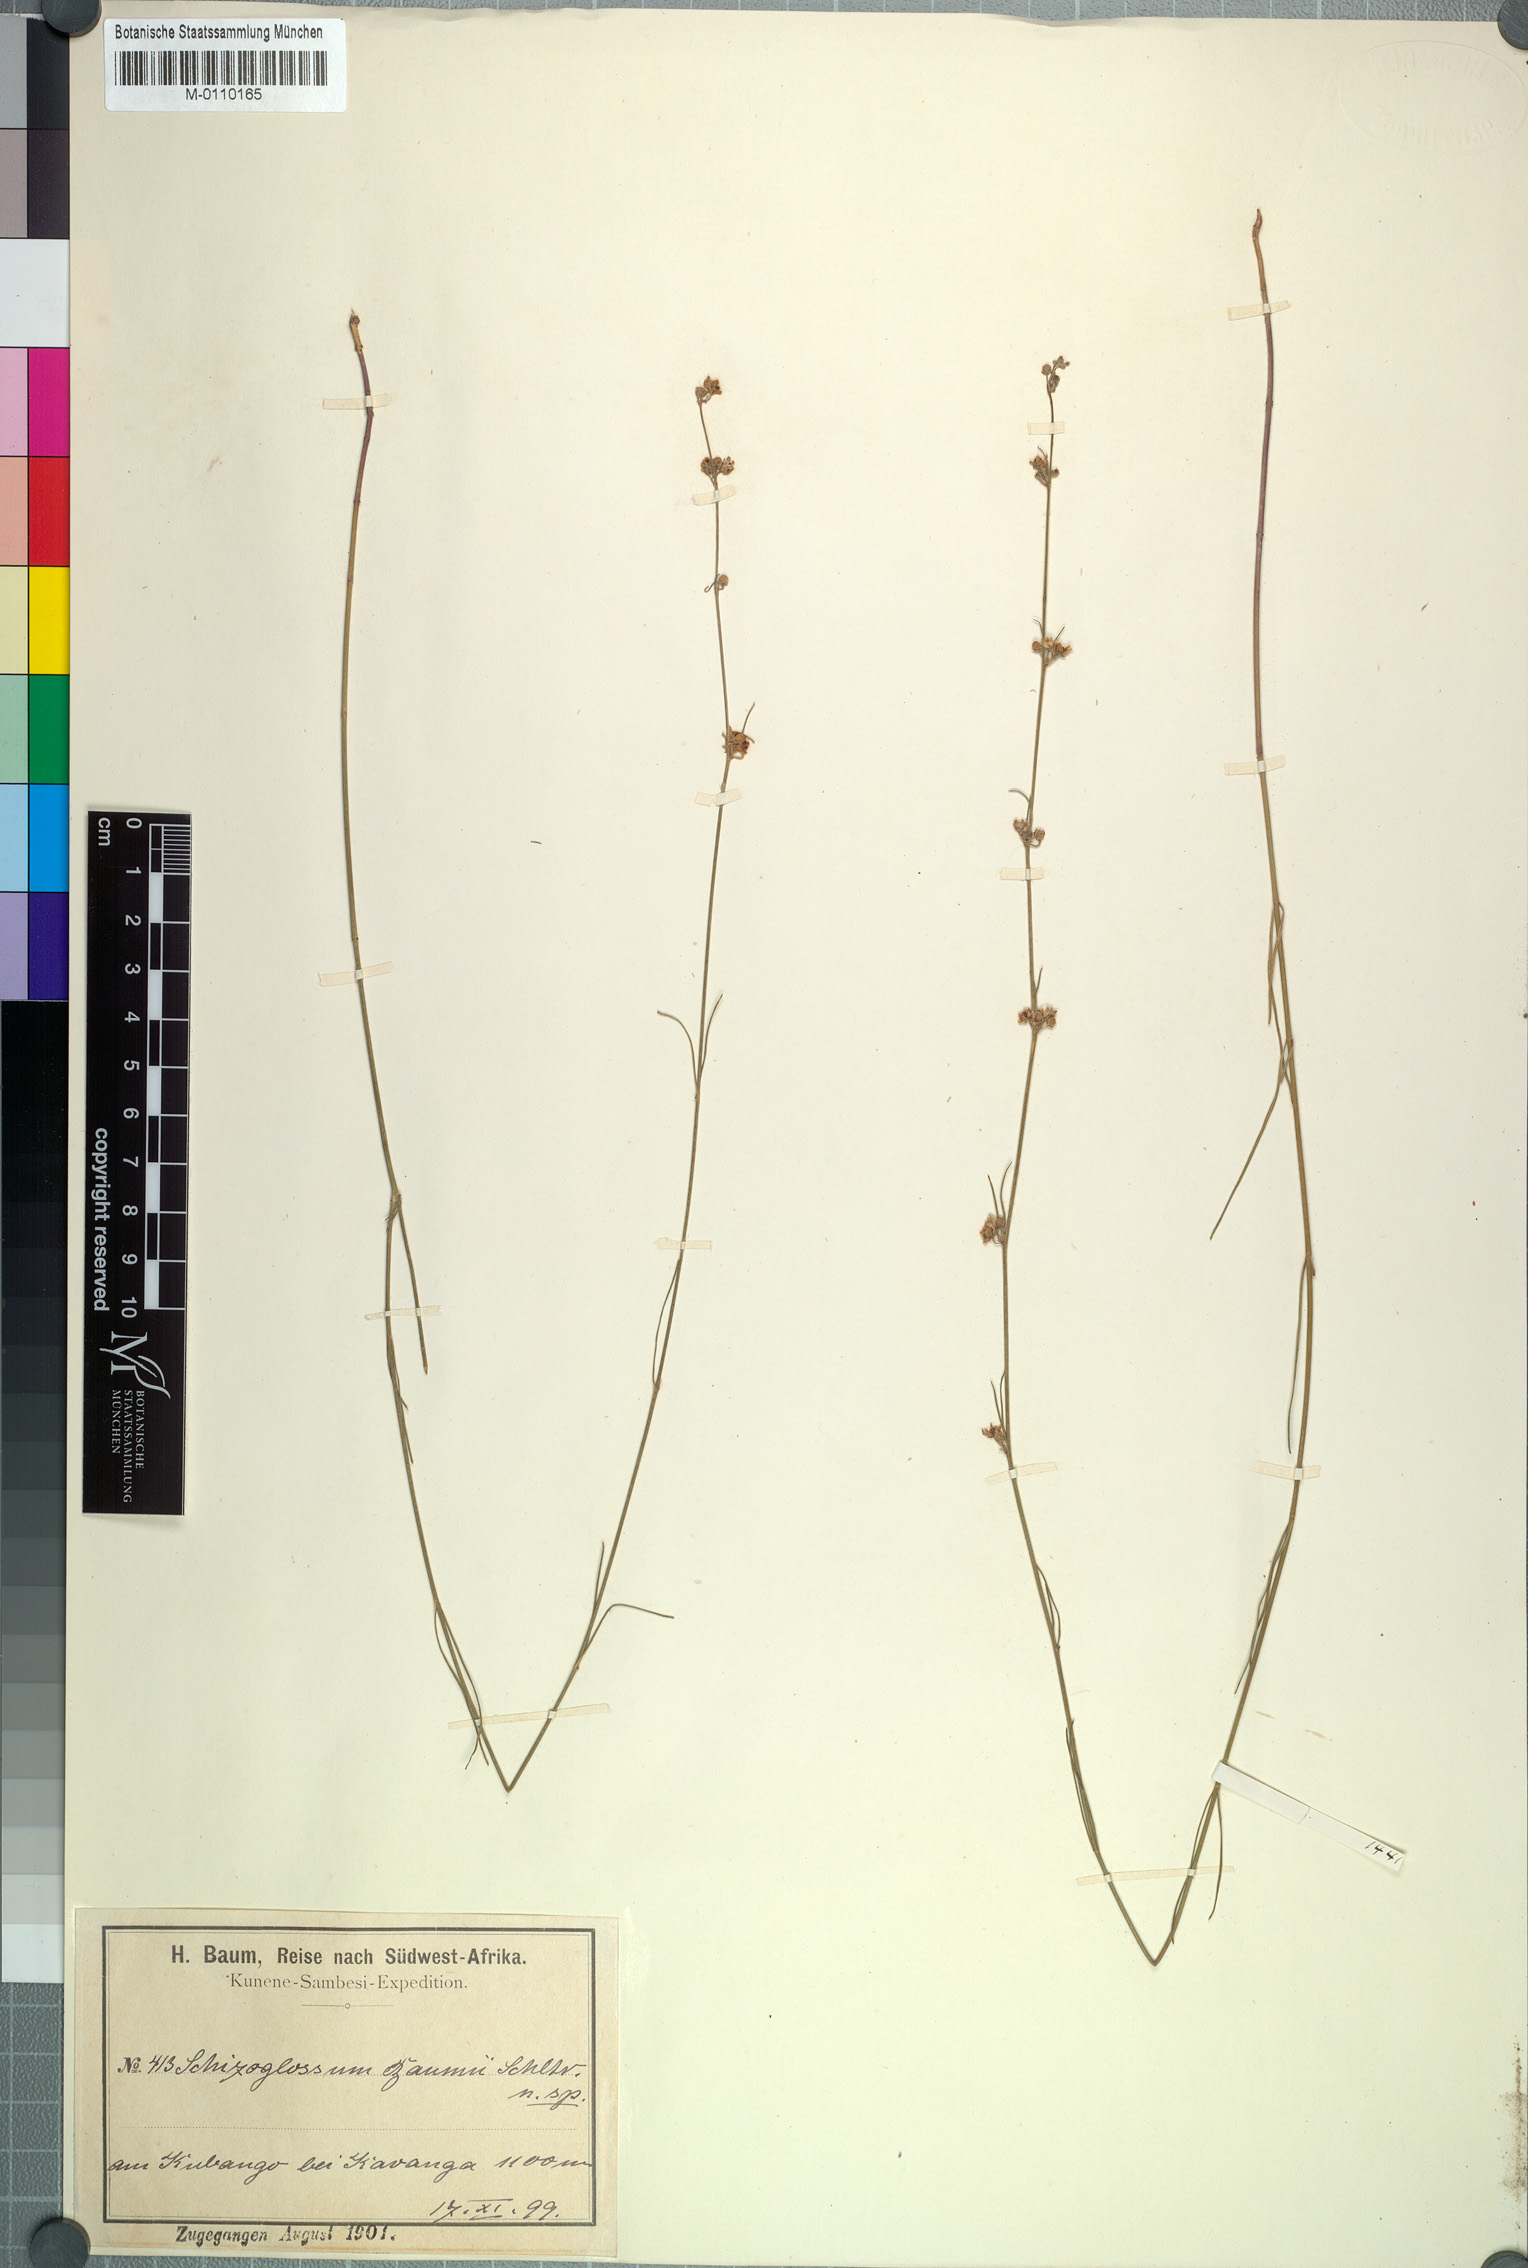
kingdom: Plantae
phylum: Tracheophyta
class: Magnoliopsida
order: Gentianales
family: Apocynaceae
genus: Aspidoglossum
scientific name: Aspidoglossum masaicum
